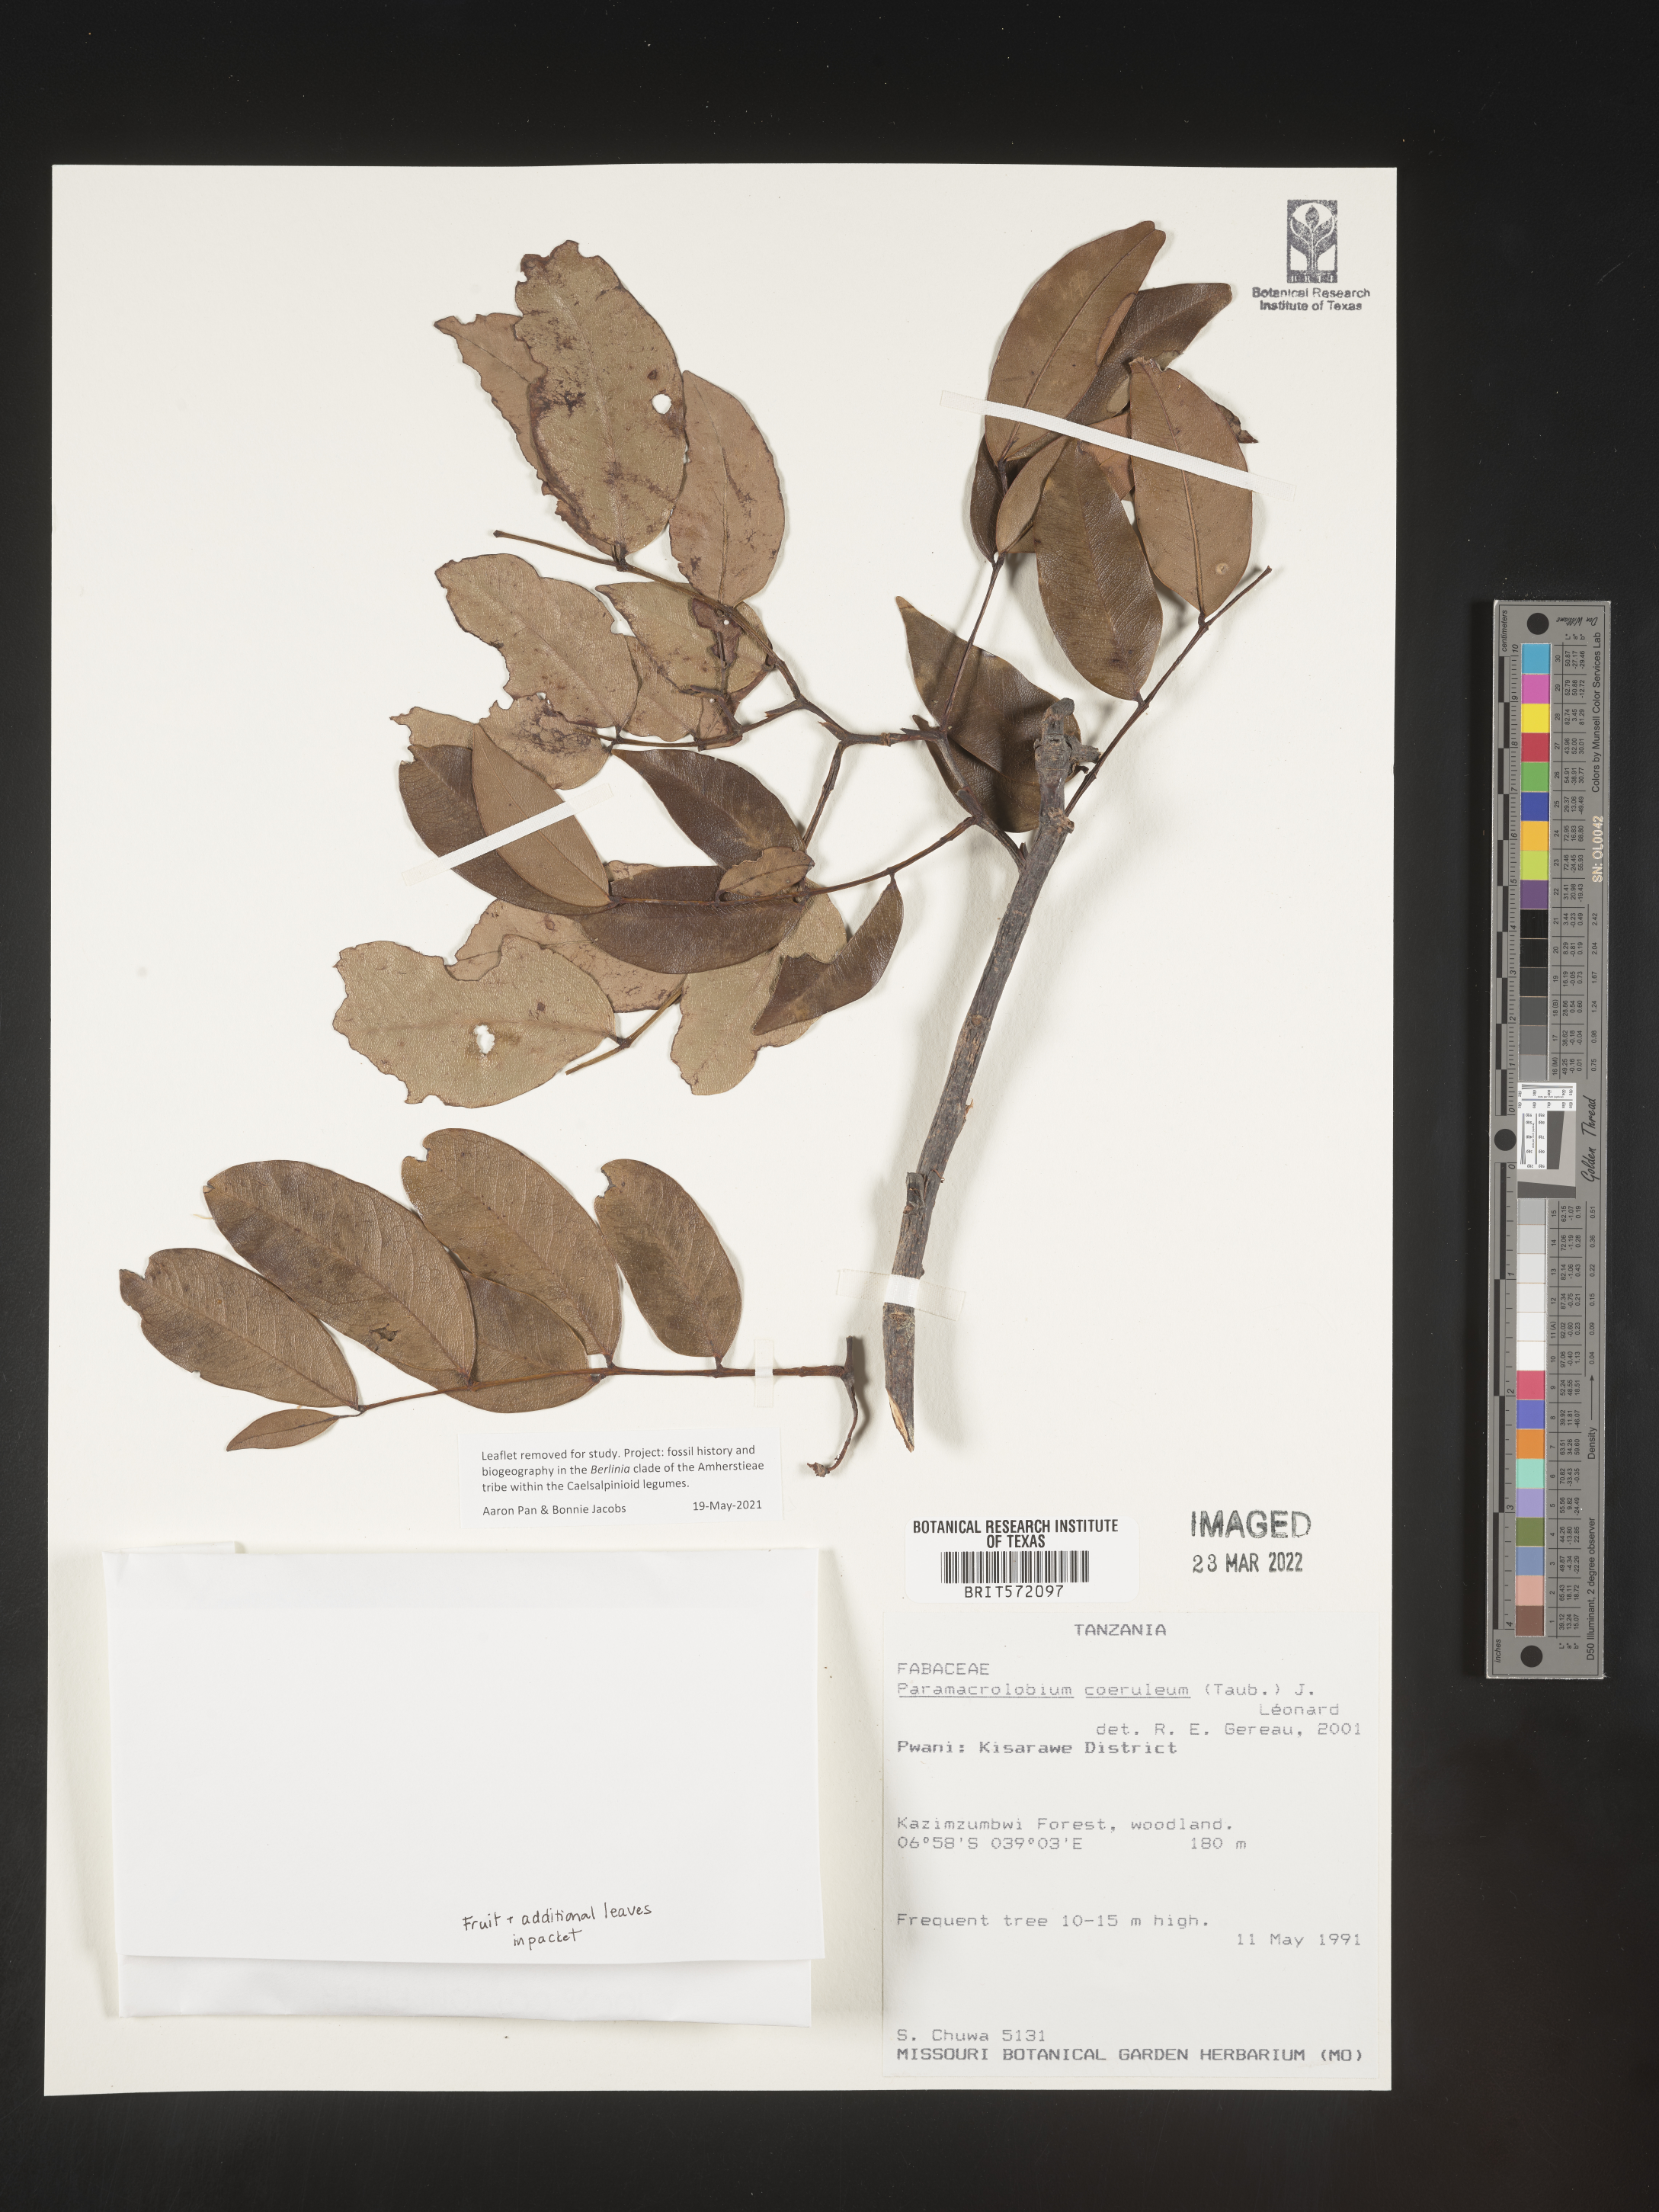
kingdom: Plantae
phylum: Tracheophyta
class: Magnoliopsida
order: Fabales
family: Fabaceae
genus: Paramacrolobium
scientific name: Paramacrolobium coeruleum
